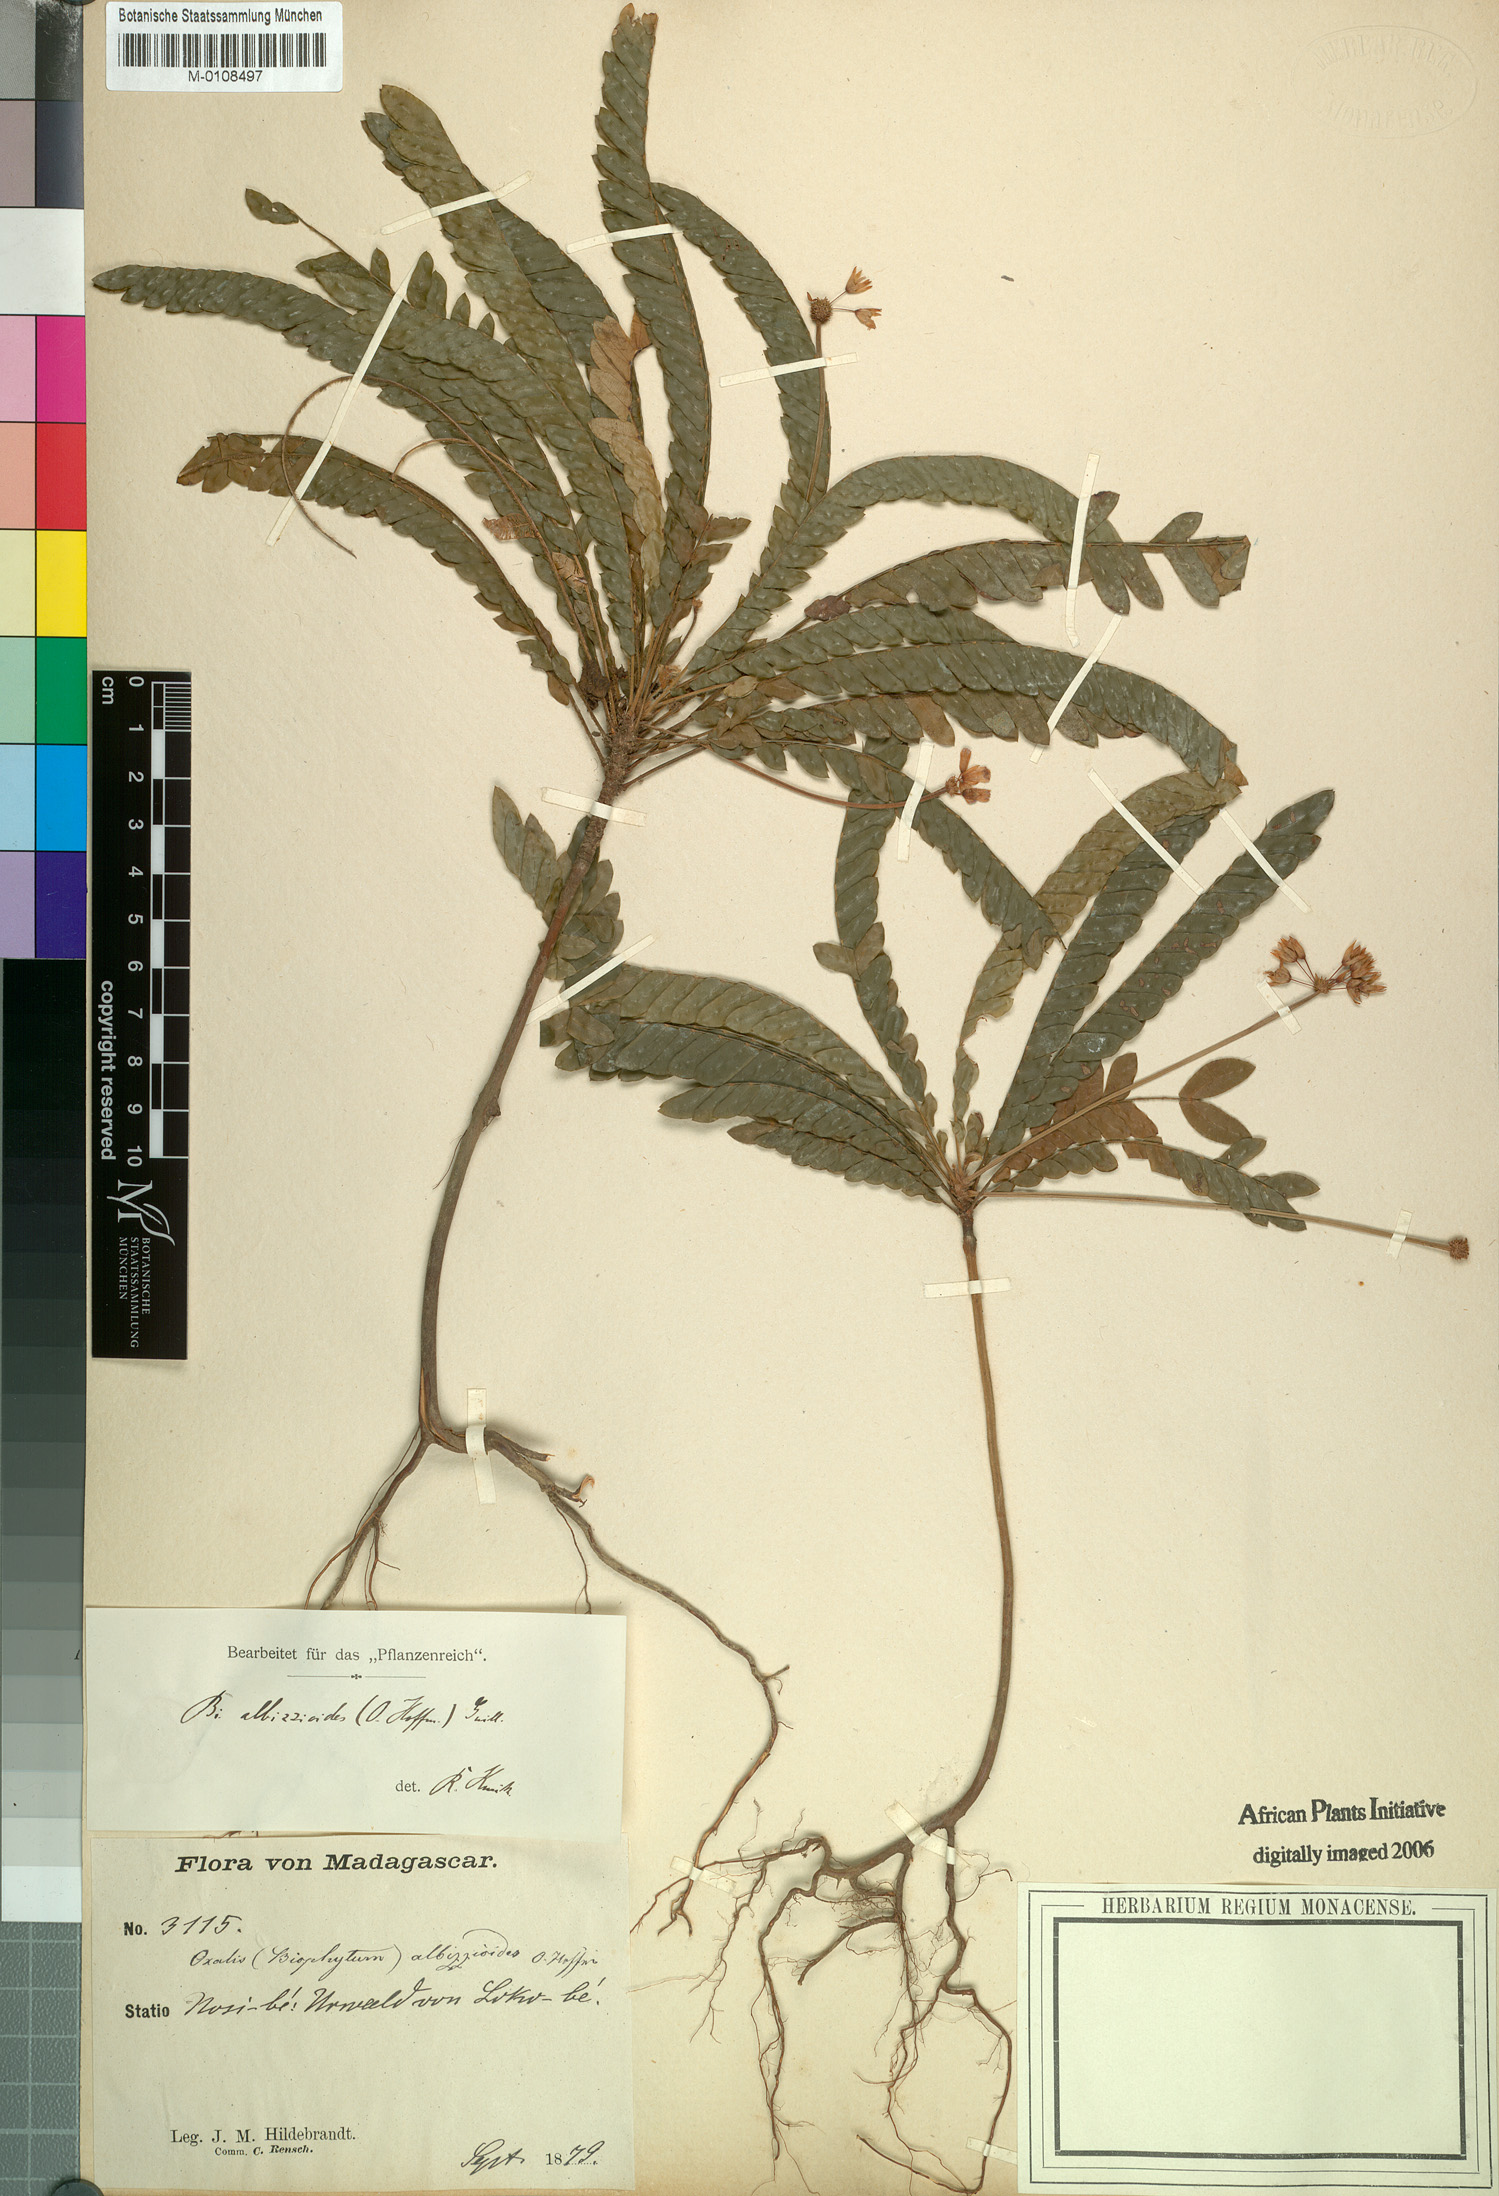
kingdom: Plantae
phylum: Tracheophyta
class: Magnoliopsida
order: Oxalidales
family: Oxalidaceae
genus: Biophytum
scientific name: Biophytum albizzioides
